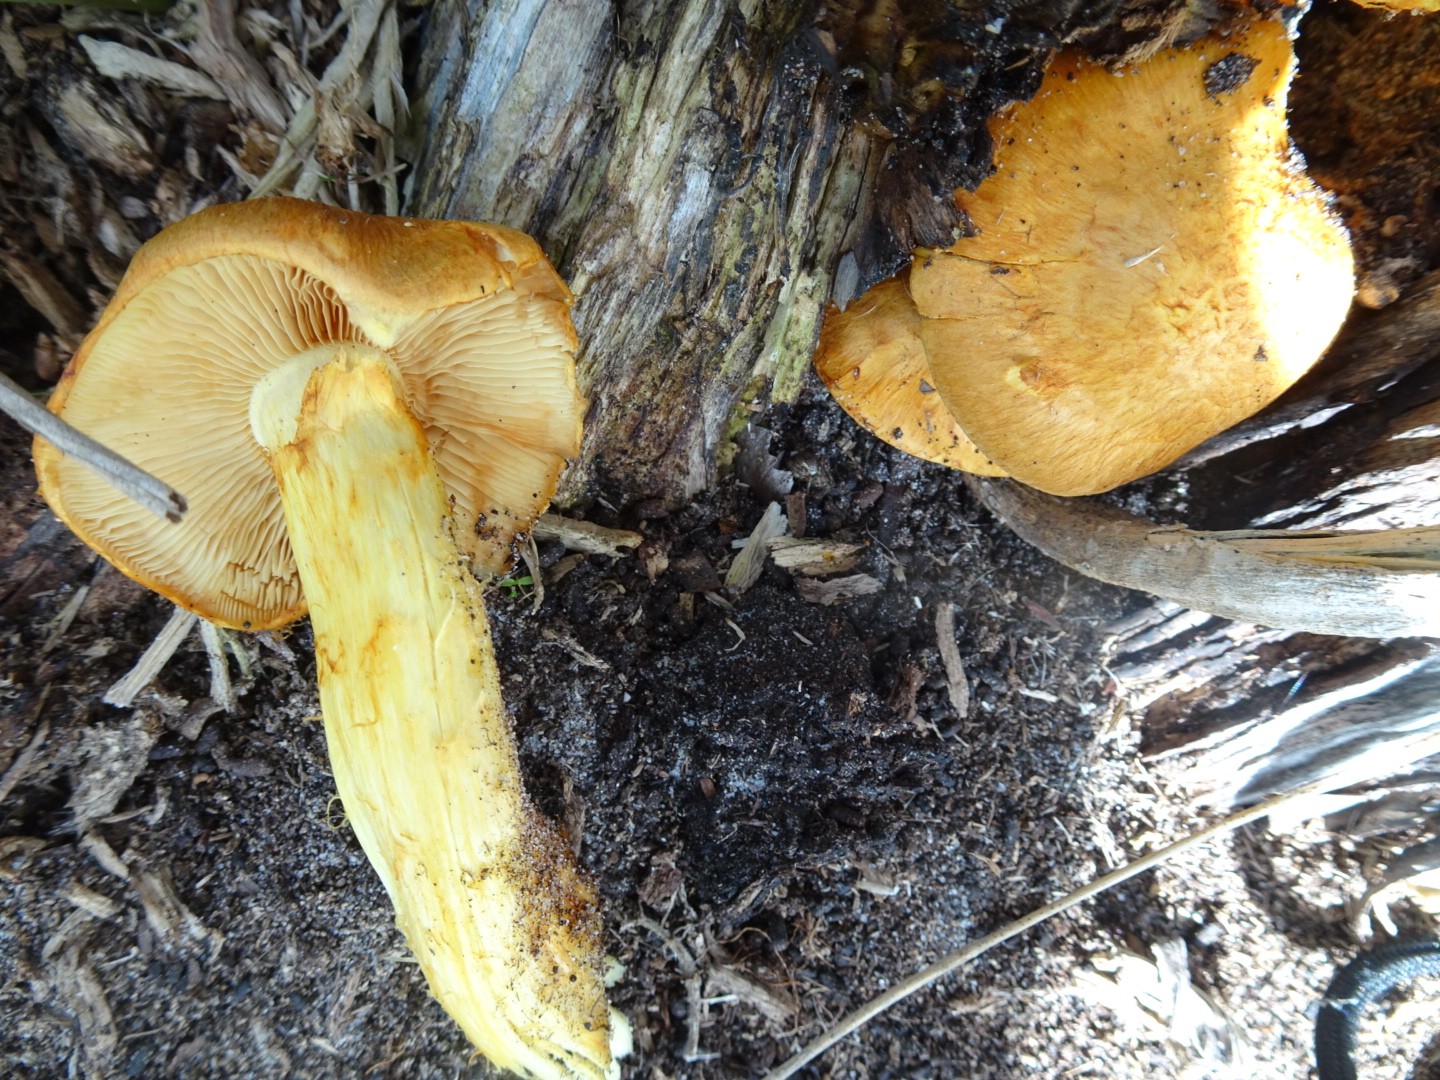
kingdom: Fungi
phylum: Basidiomycota
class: Agaricomycetes
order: Agaricales
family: Hymenogastraceae
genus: Gymnopilus
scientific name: Gymnopilus spectabilis
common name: fibret flammehat
